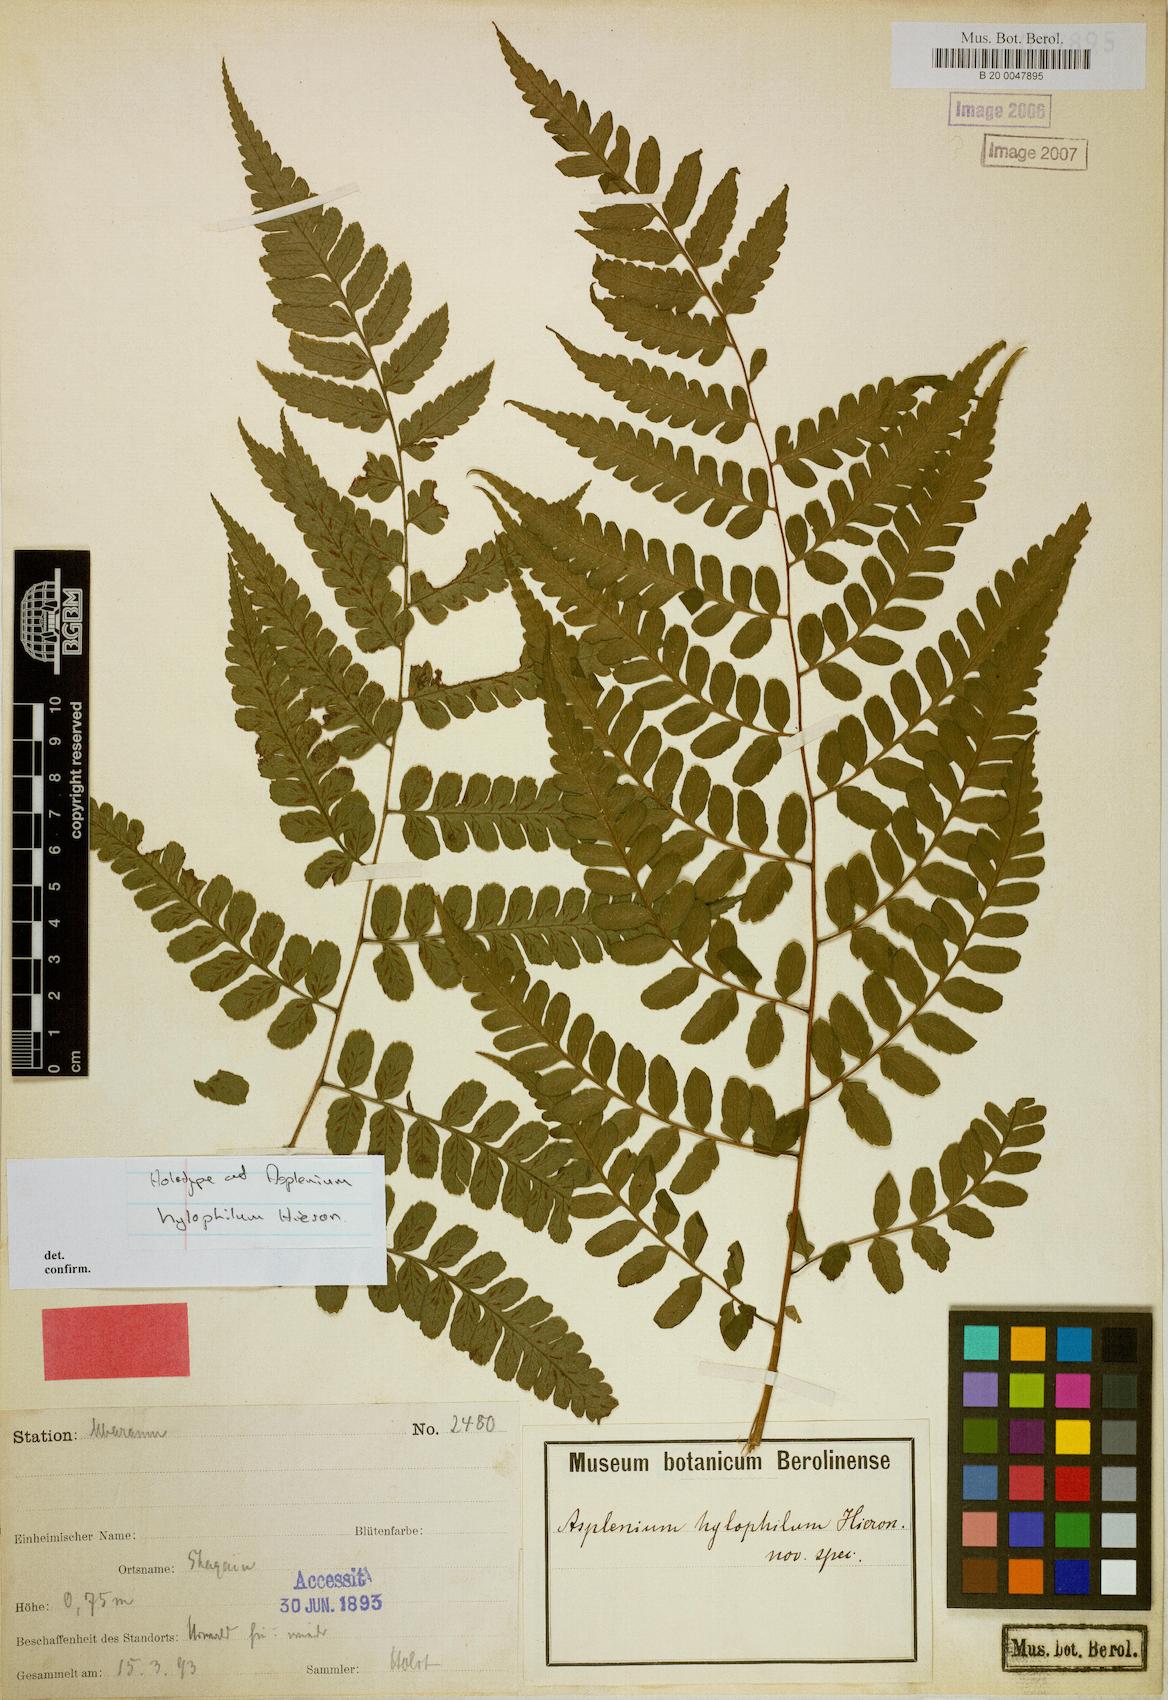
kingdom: Plantae
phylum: Tracheophyta
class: Polypodiopsida
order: Polypodiales
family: Athyriaceae
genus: Diplazium
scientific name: Diplazium nemorale
